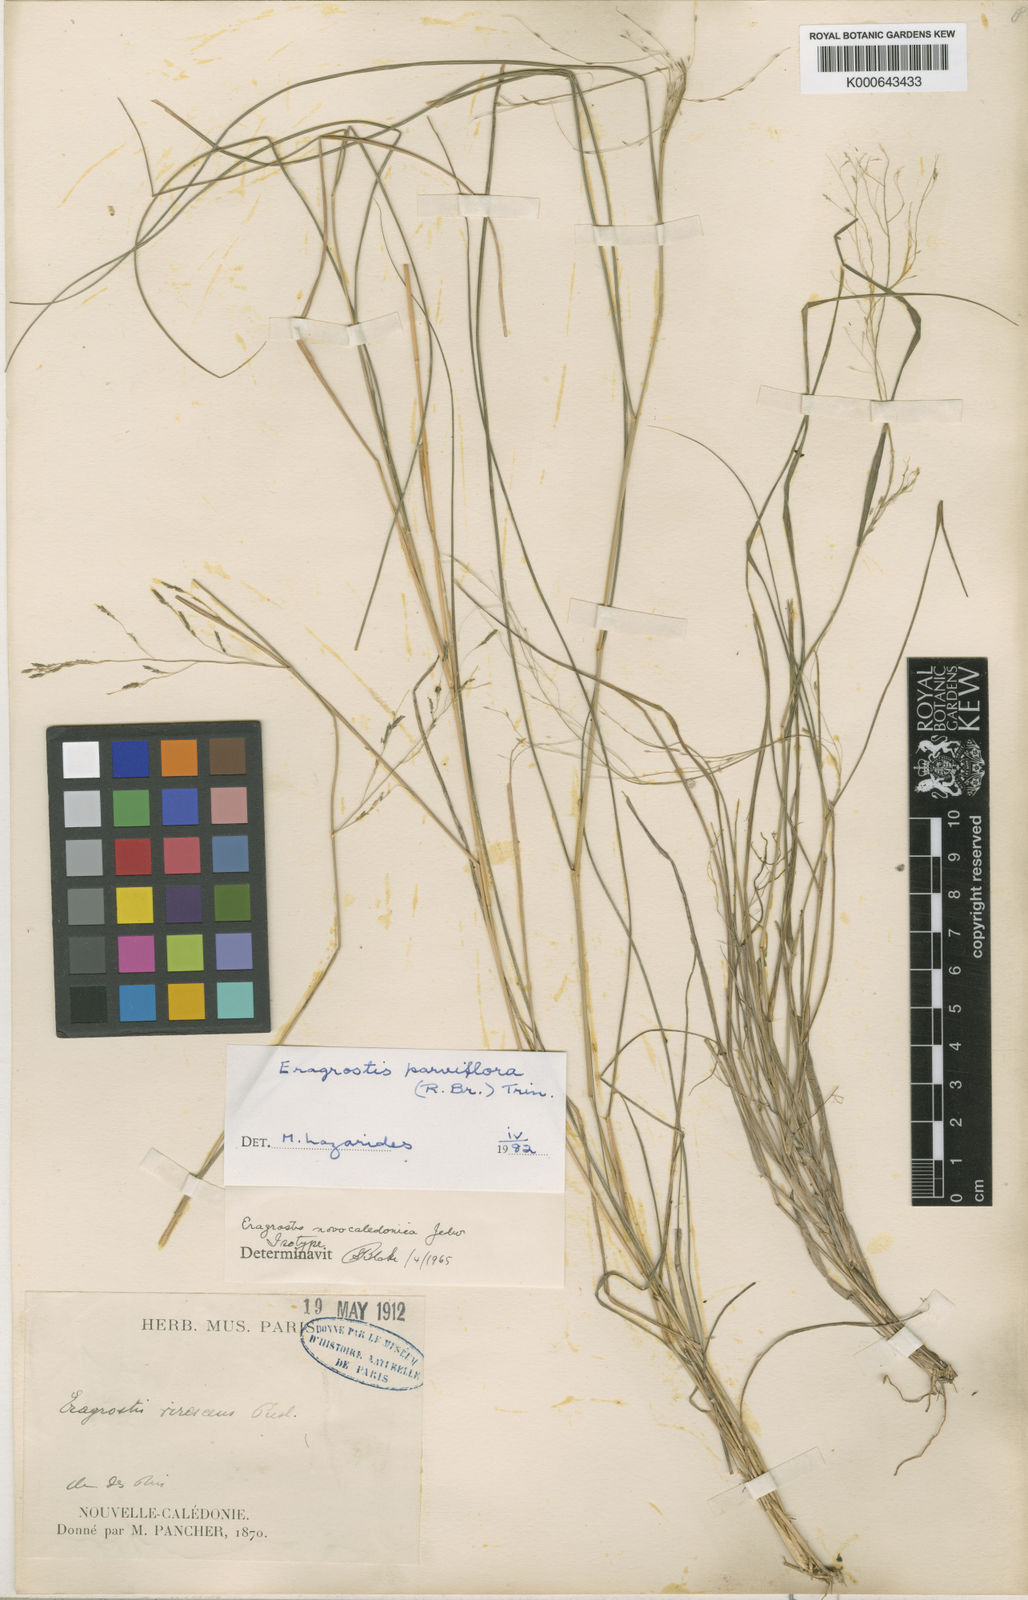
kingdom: Plantae
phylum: Tracheophyta
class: Liliopsida
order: Poales
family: Poaceae
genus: Eragrostis
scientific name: Eragrostis parviflora
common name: Weeping love-grass
